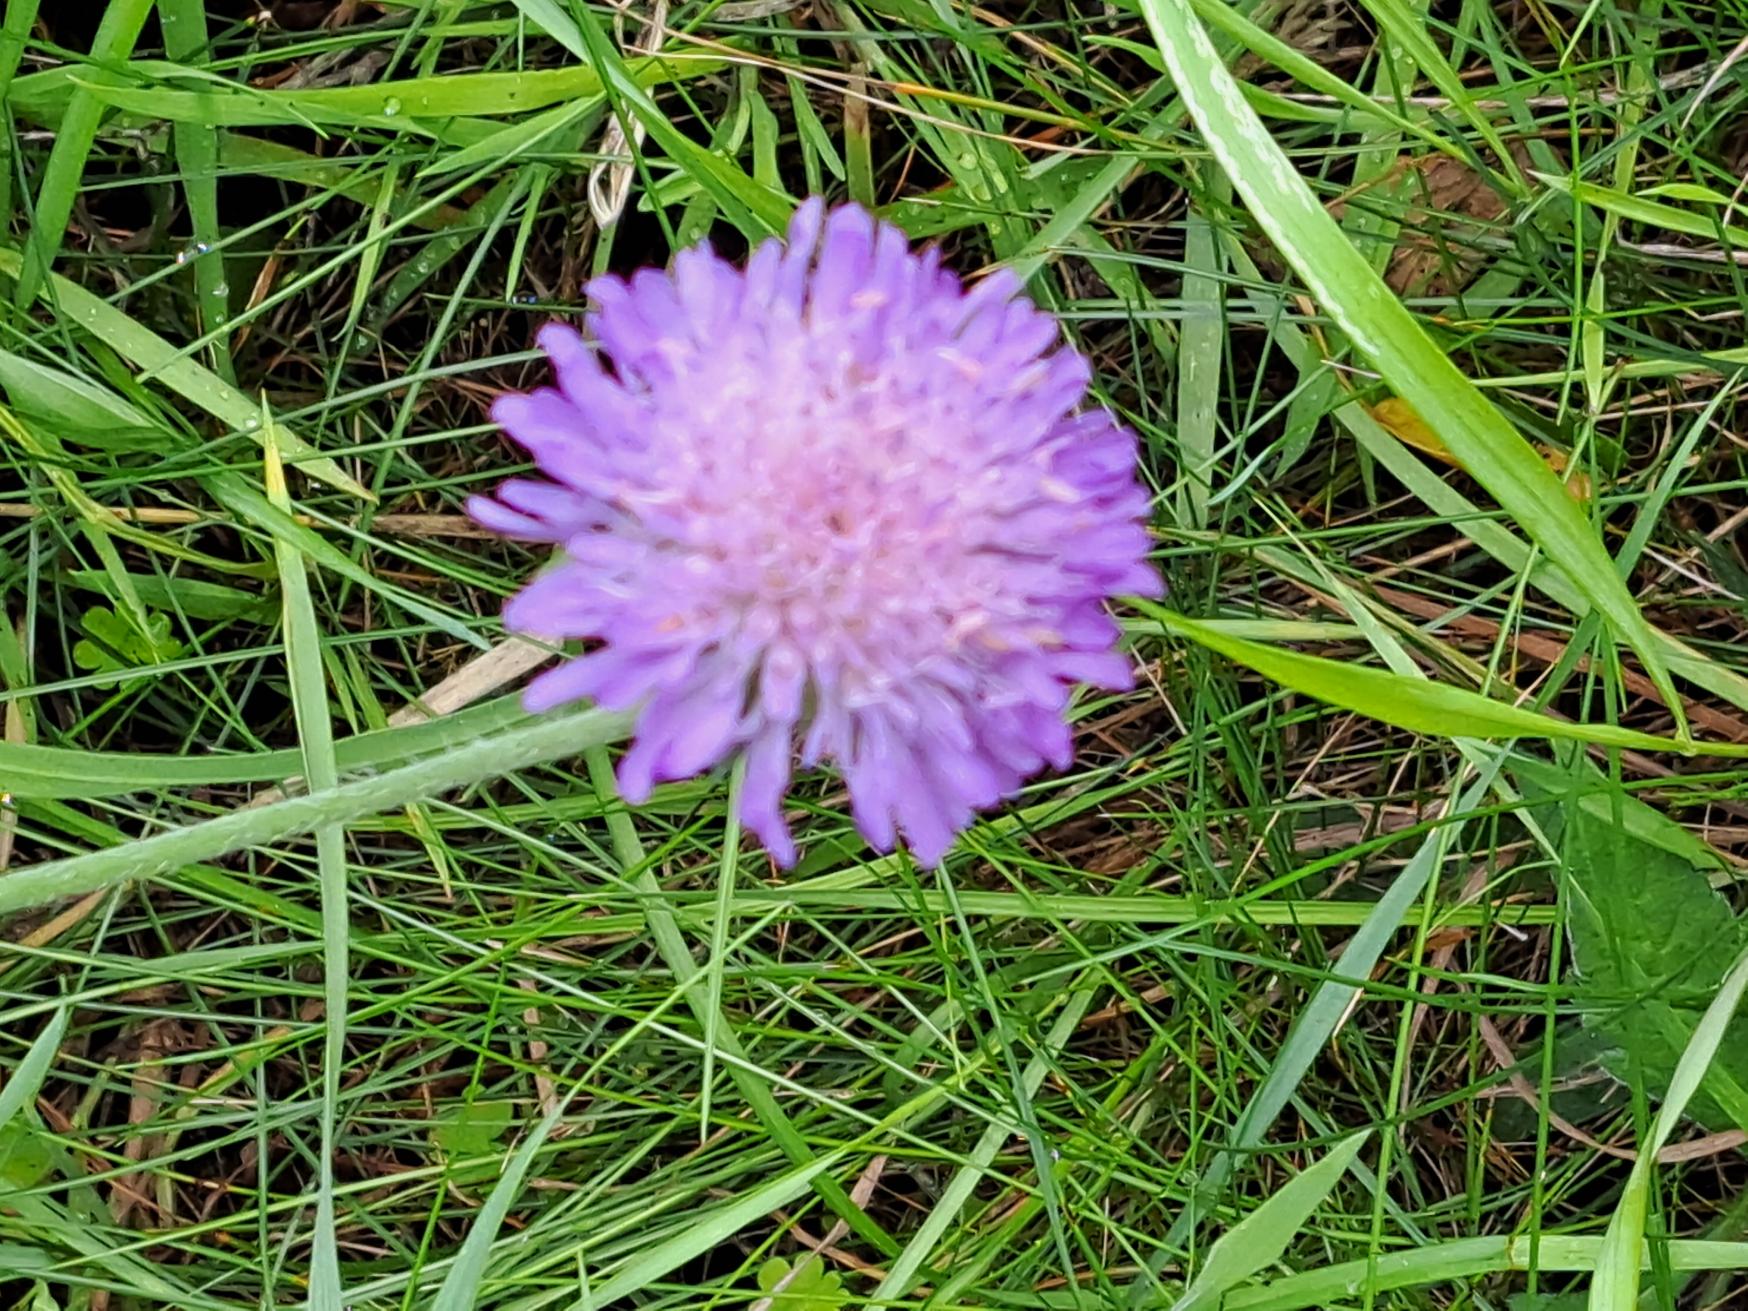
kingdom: Plantae
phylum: Tracheophyta
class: Magnoliopsida
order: Dipsacales
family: Caprifoliaceae
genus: Knautia
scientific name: Knautia arvensis
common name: Blåhat
